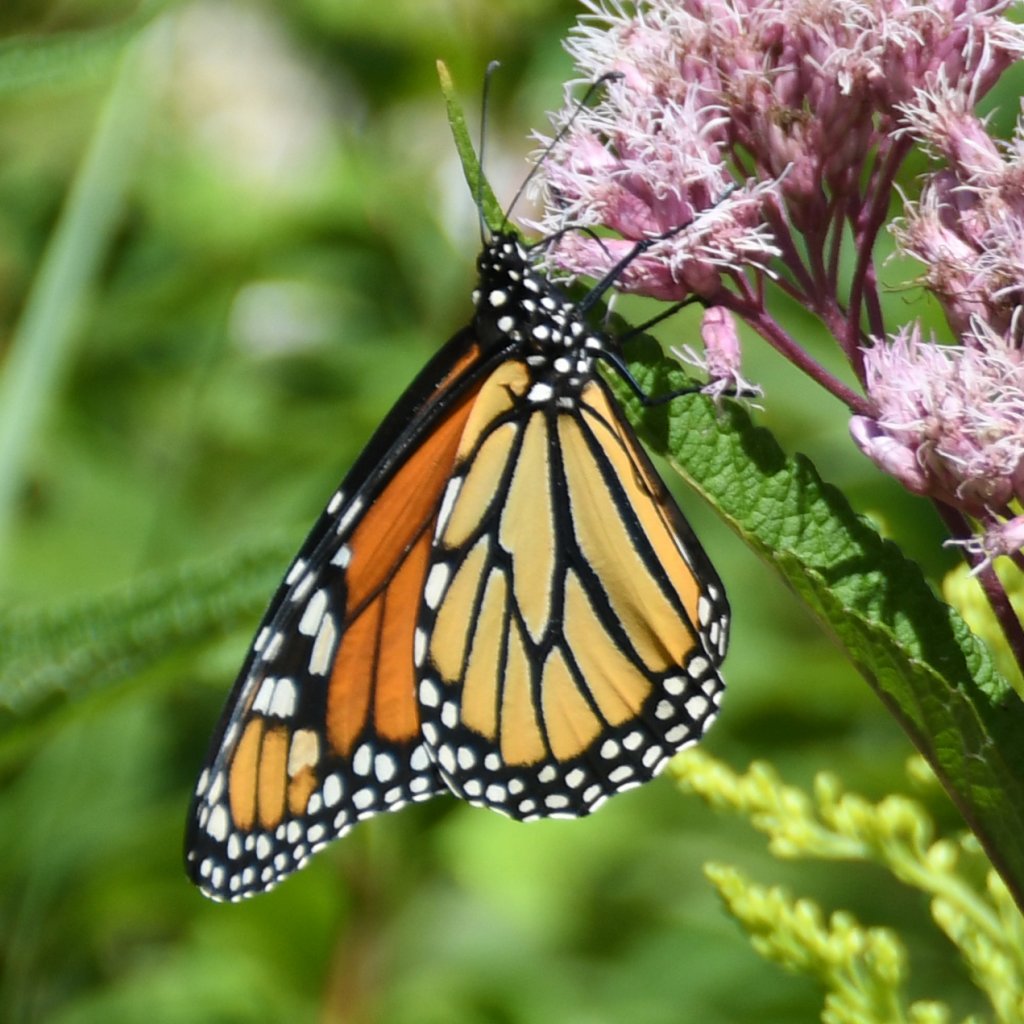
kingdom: Animalia
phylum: Arthropoda
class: Insecta
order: Lepidoptera
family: Nymphalidae
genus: Danaus
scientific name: Danaus plexippus
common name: Monarch
